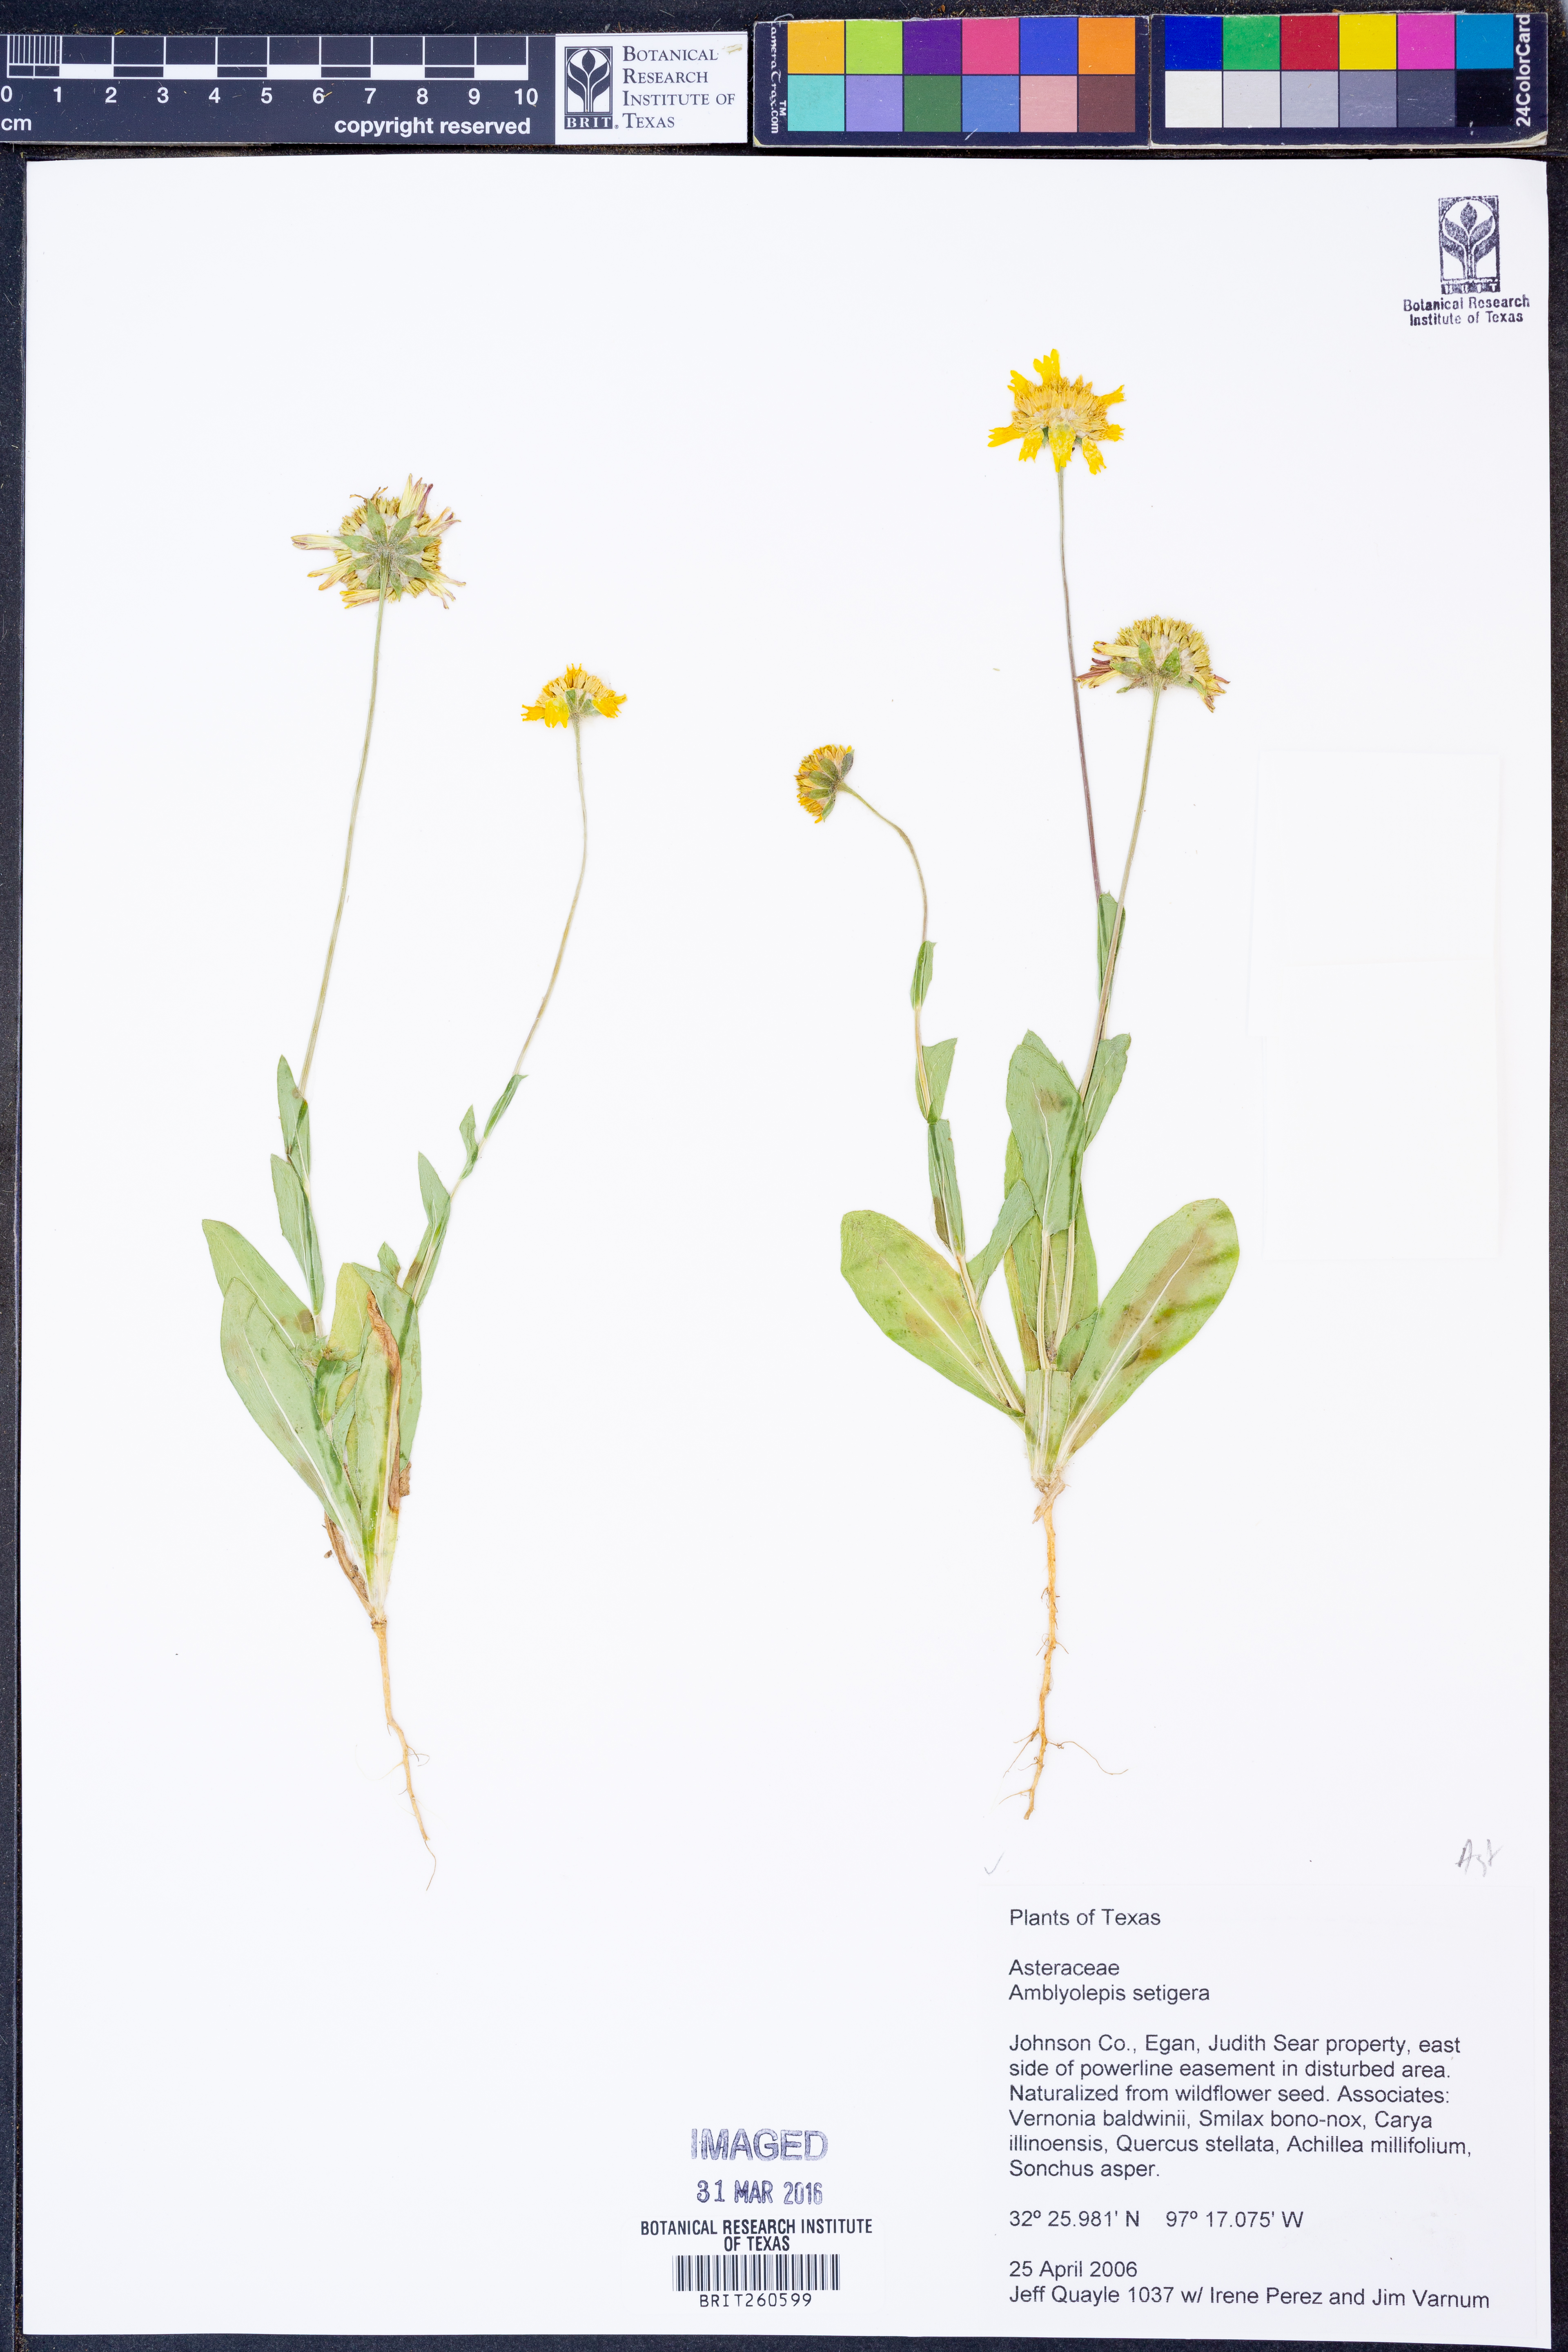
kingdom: Plantae
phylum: Tracheophyta
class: Magnoliopsida
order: Asterales
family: Asteraceae
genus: Amblyolepis
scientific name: Amblyolepis setigera
